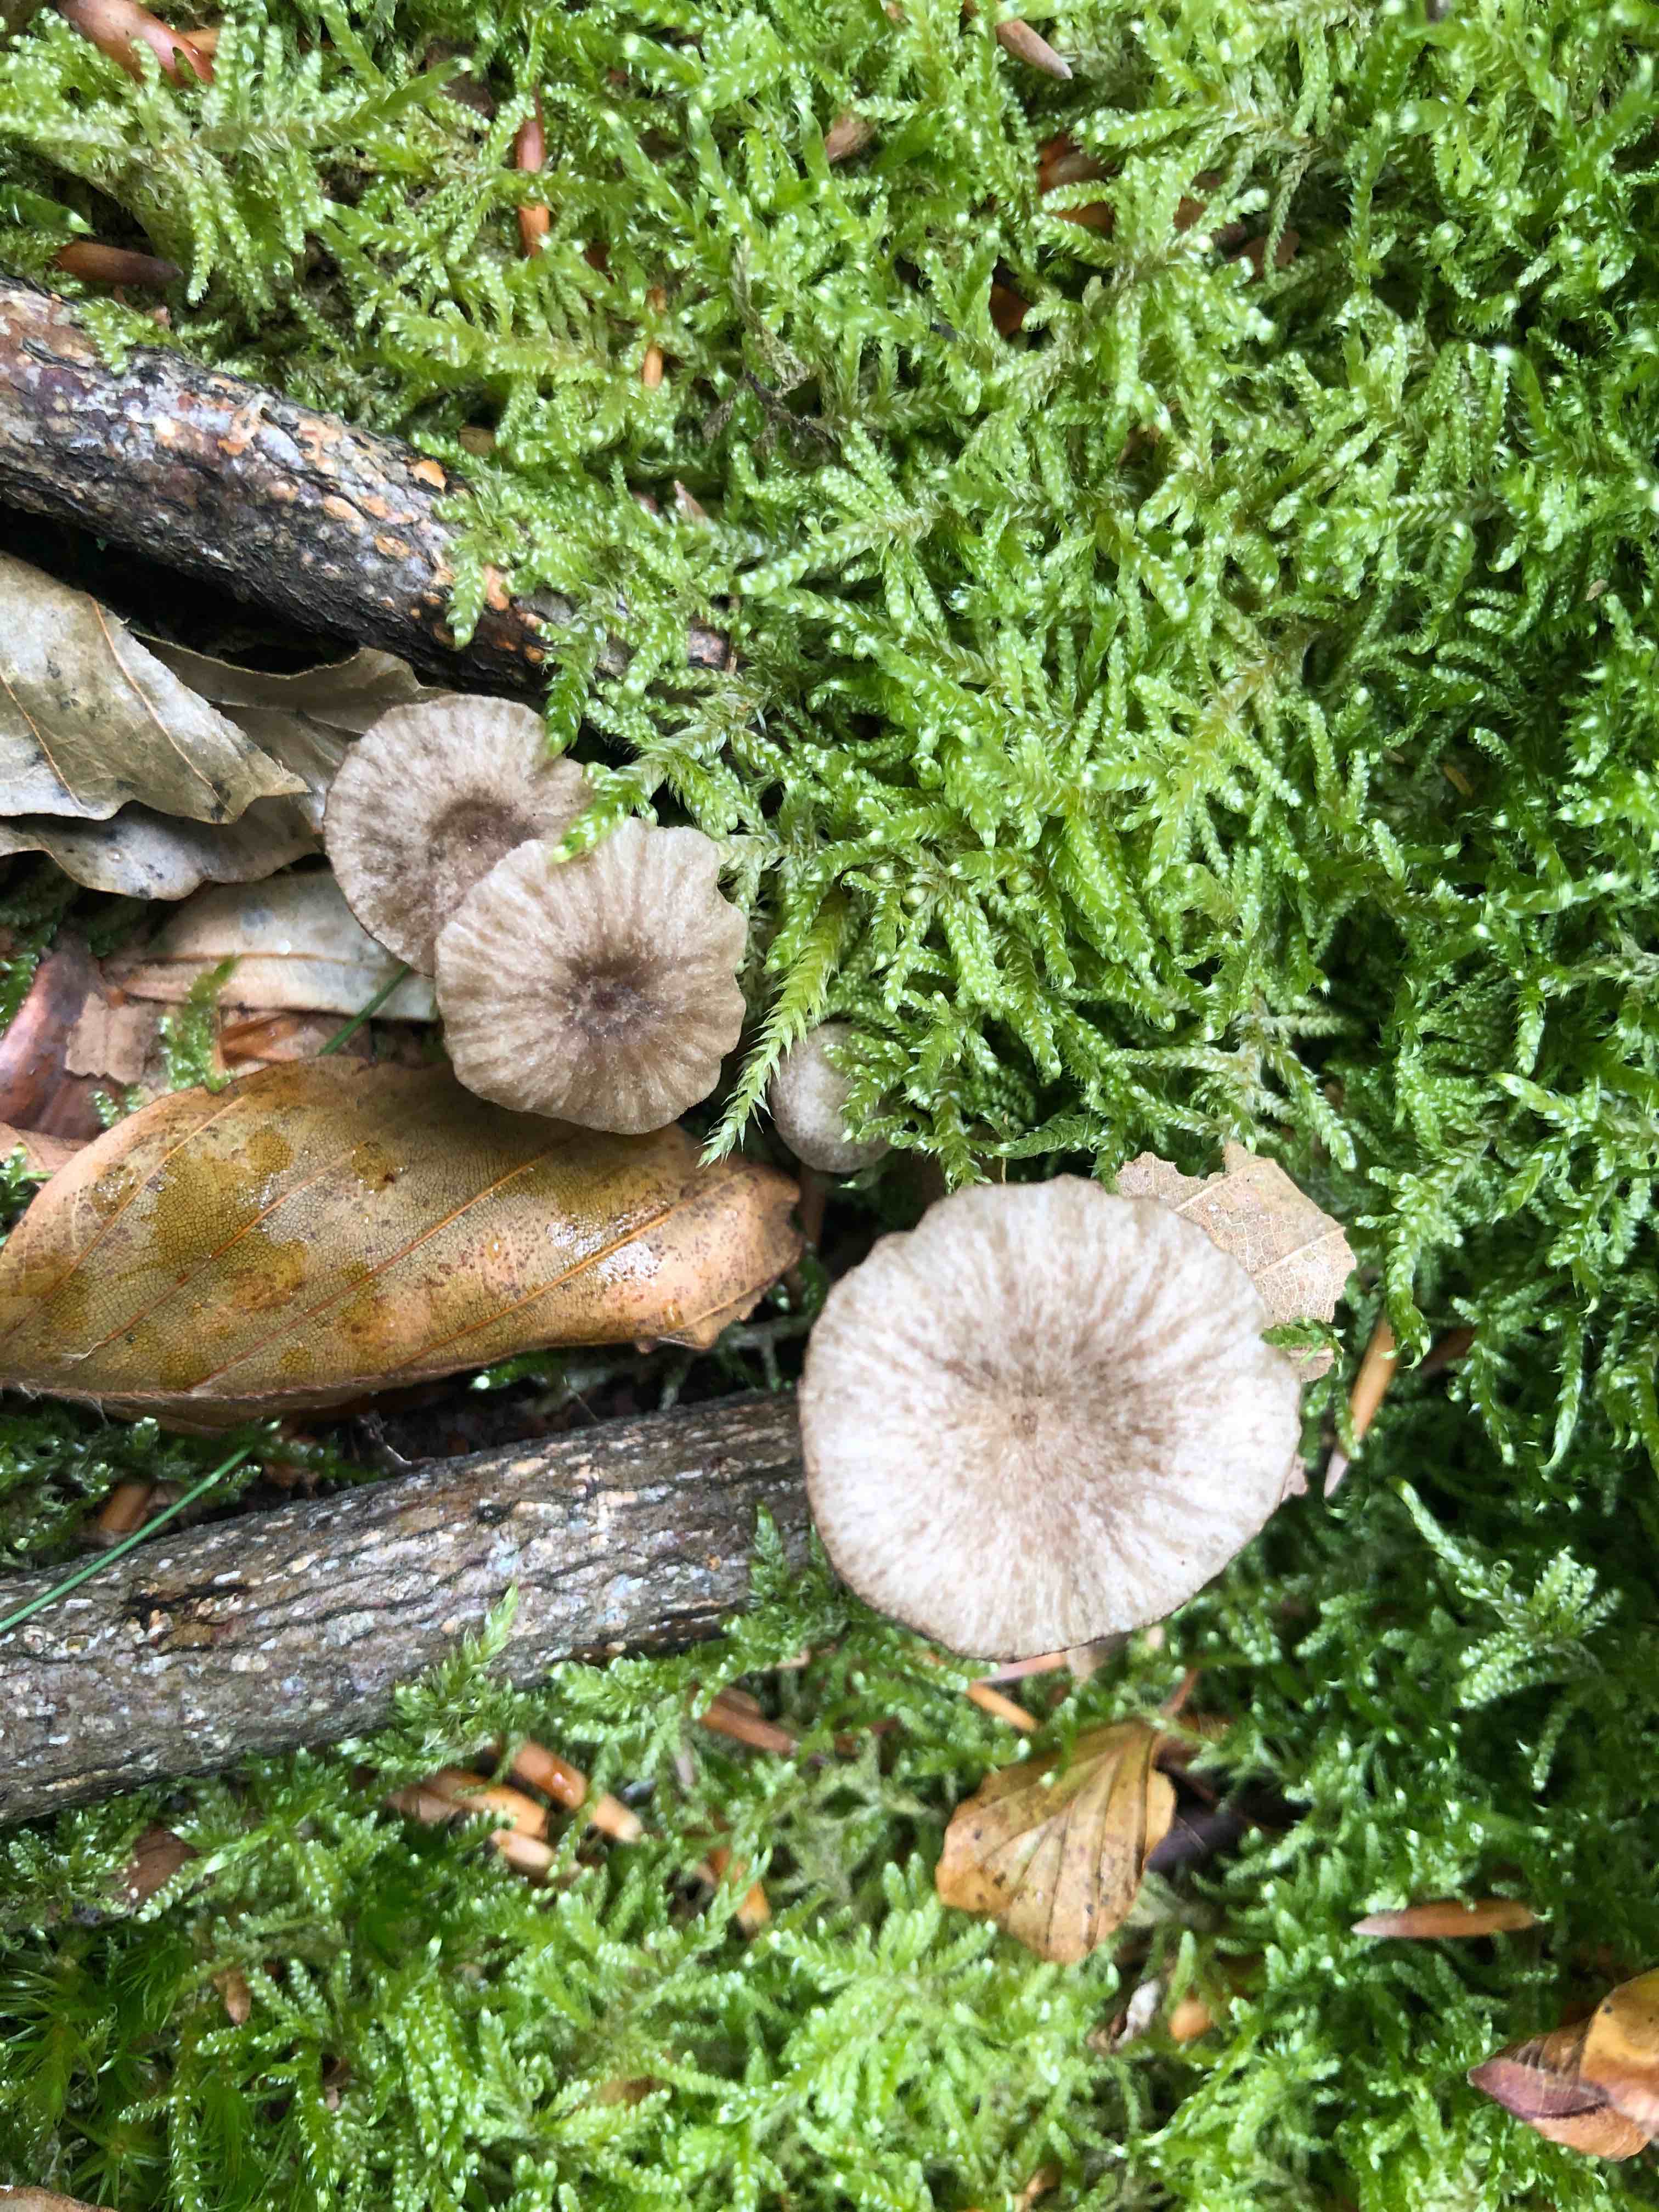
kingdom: Fungi
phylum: Basidiomycota
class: Agaricomycetes
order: Agaricales
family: Entolomataceae
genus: Entoloma
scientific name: Entoloma rhodocylix
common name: fjernbladet rødblad
